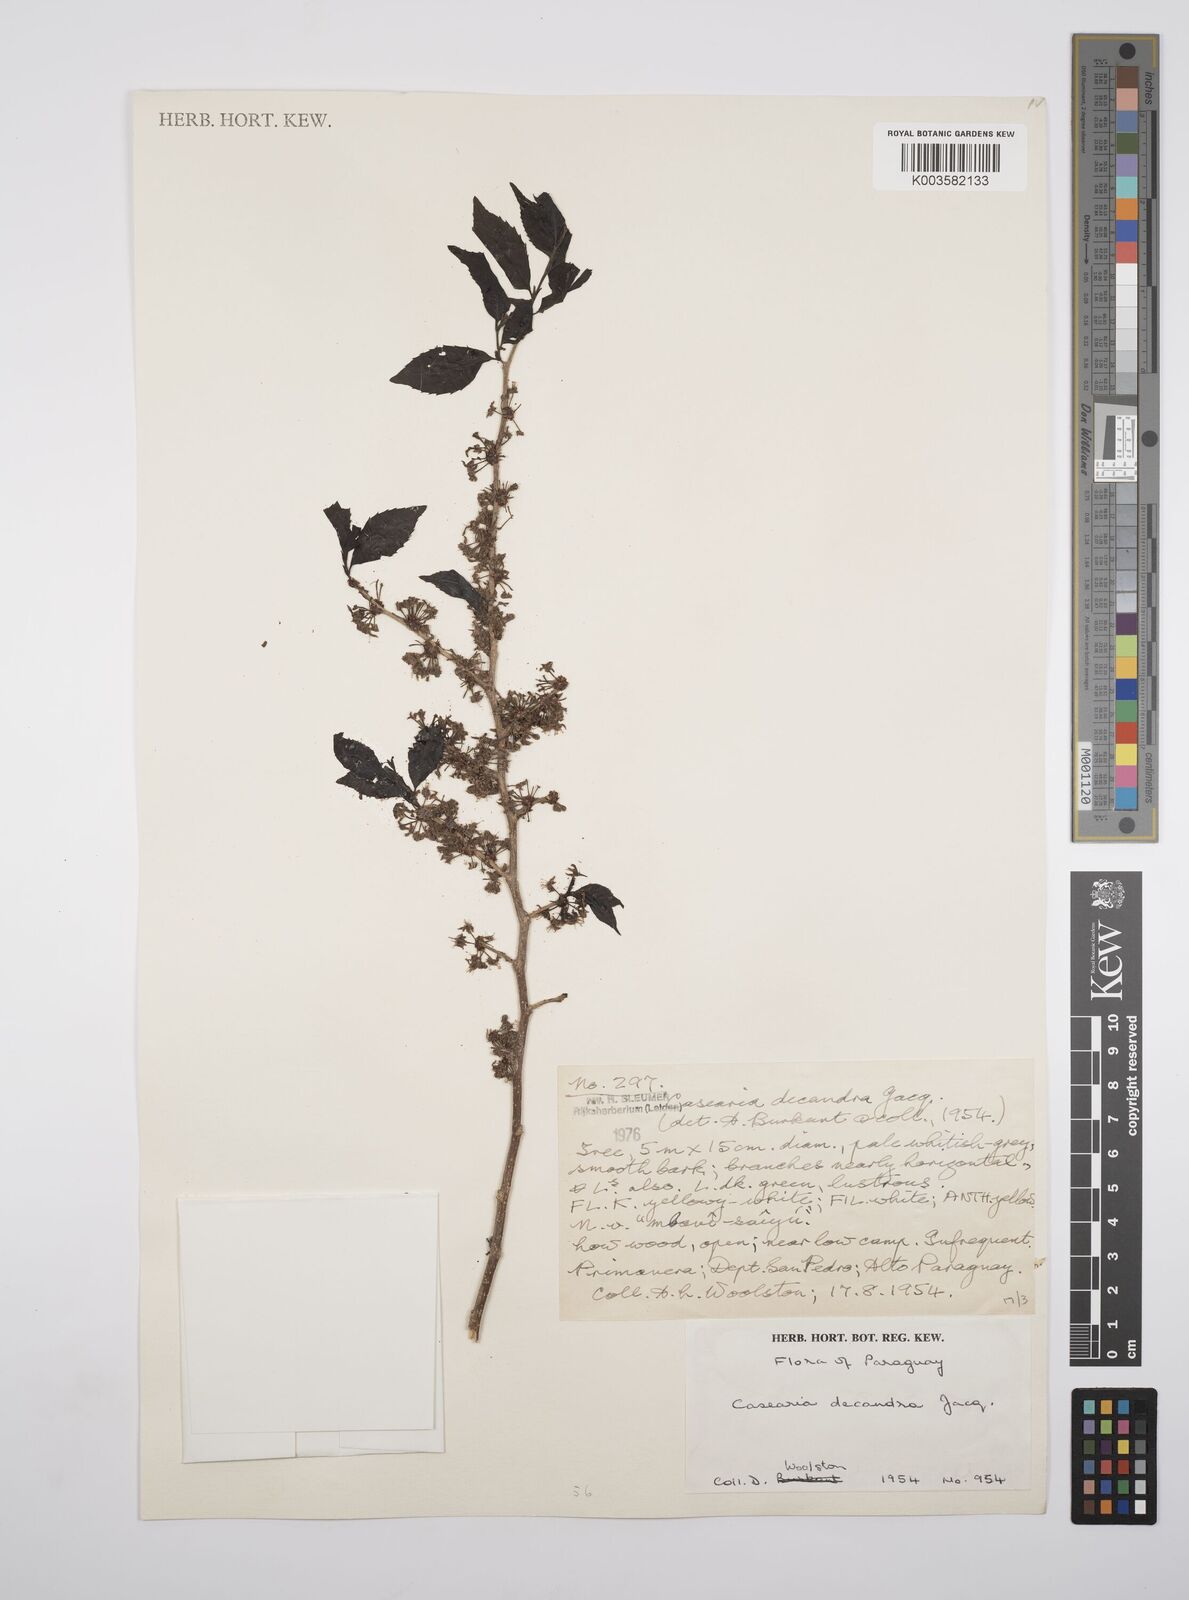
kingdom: Plantae
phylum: Tracheophyta
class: Magnoliopsida
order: Malpighiales
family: Salicaceae
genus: Casearia
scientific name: Casearia
